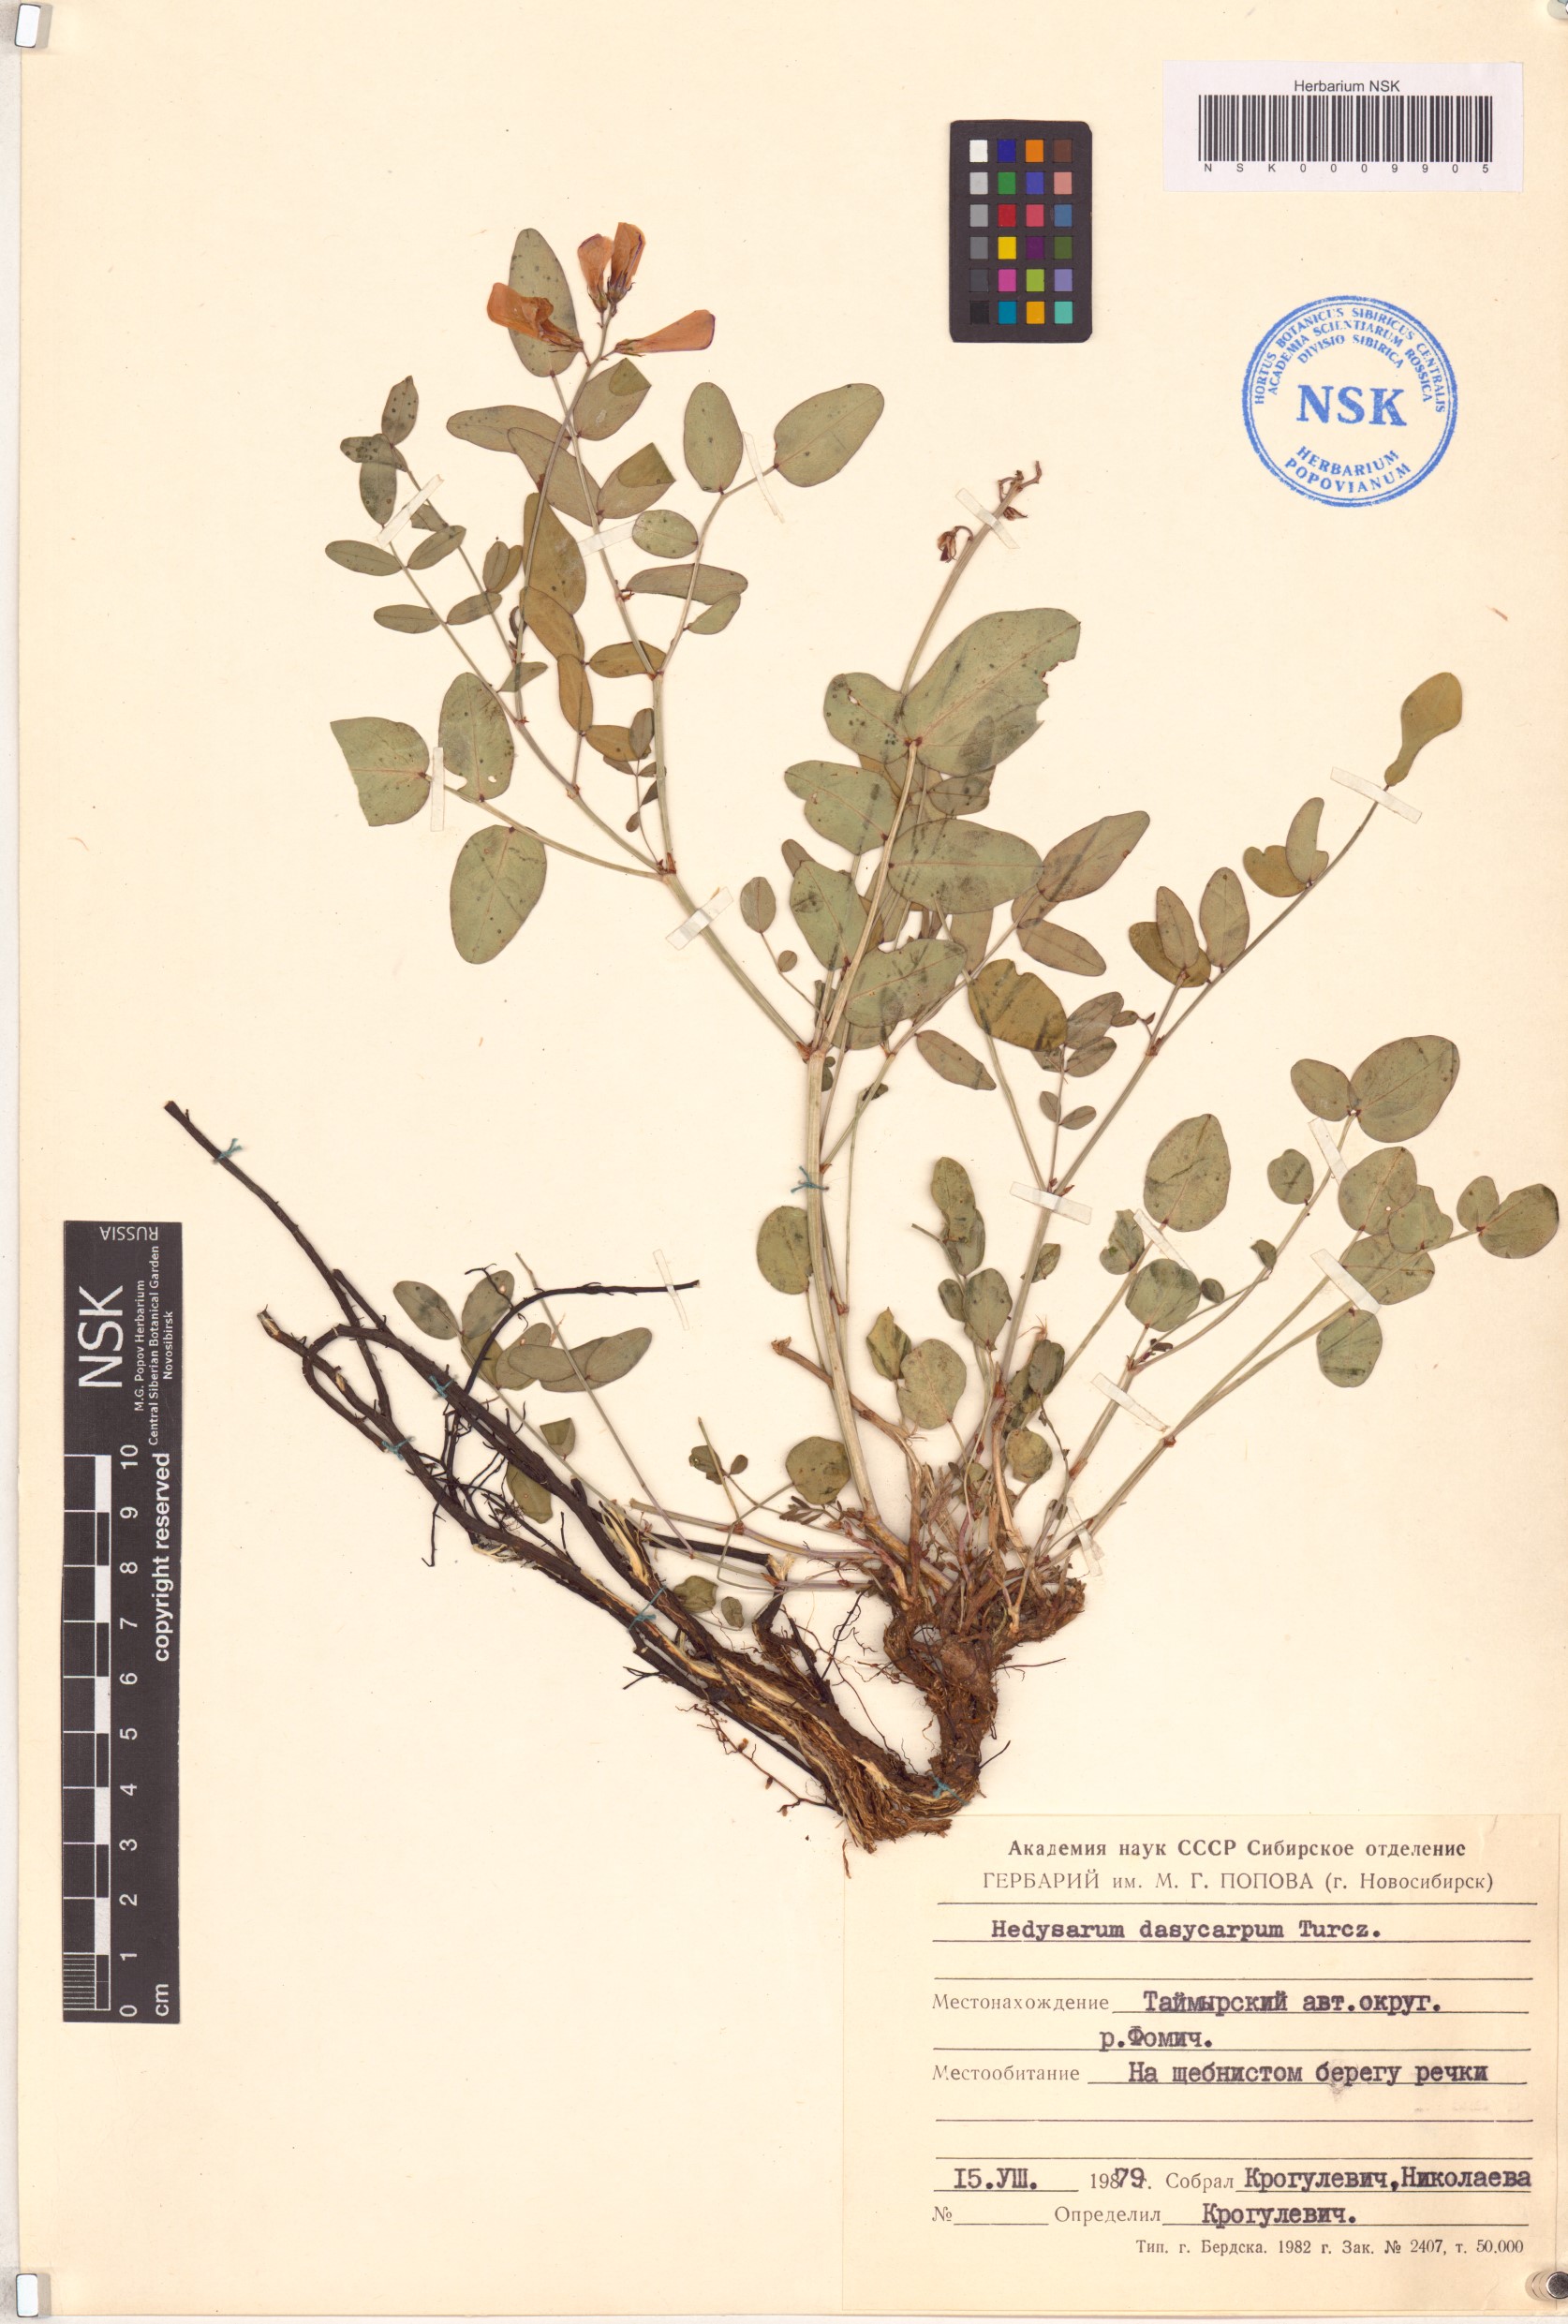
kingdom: Plantae
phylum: Tracheophyta
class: Magnoliopsida
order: Fabales
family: Fabaceae
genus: Hedysarum
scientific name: Hedysarum dasycarpum
